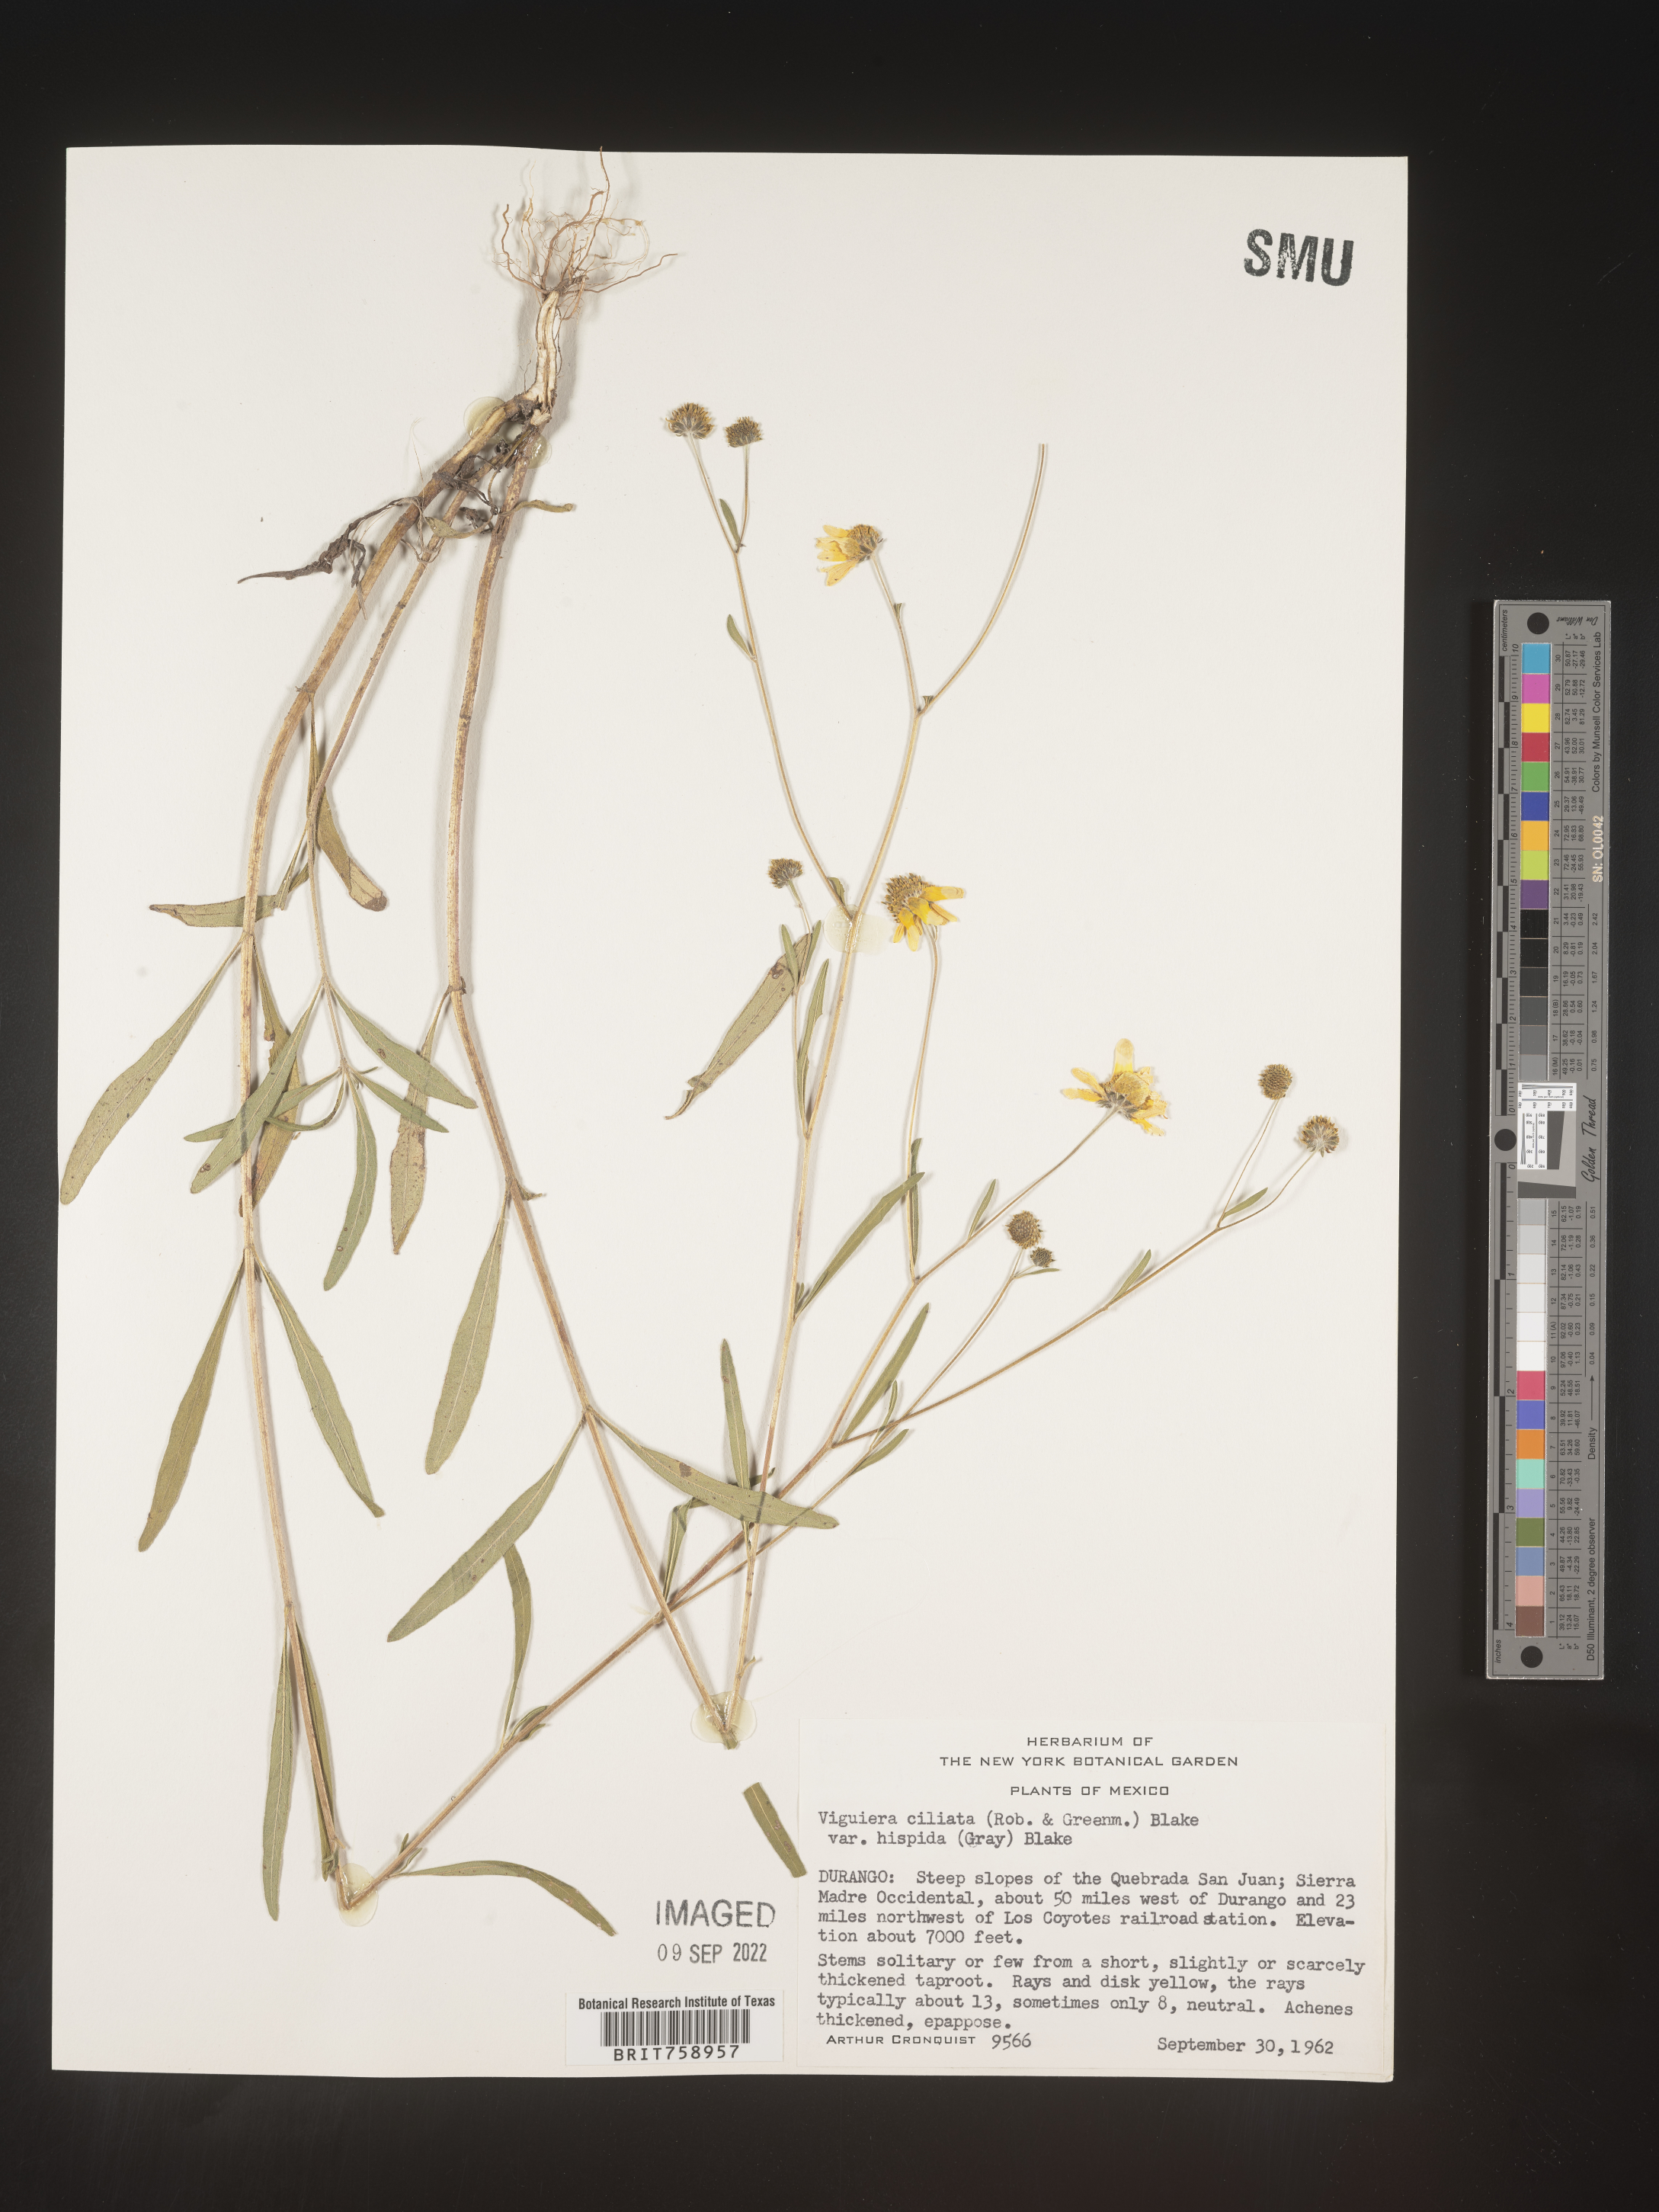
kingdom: Plantae
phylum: Tracheophyta
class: Magnoliopsida
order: Asterales
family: Asteraceae
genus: Viguiera
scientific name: Viguiera
